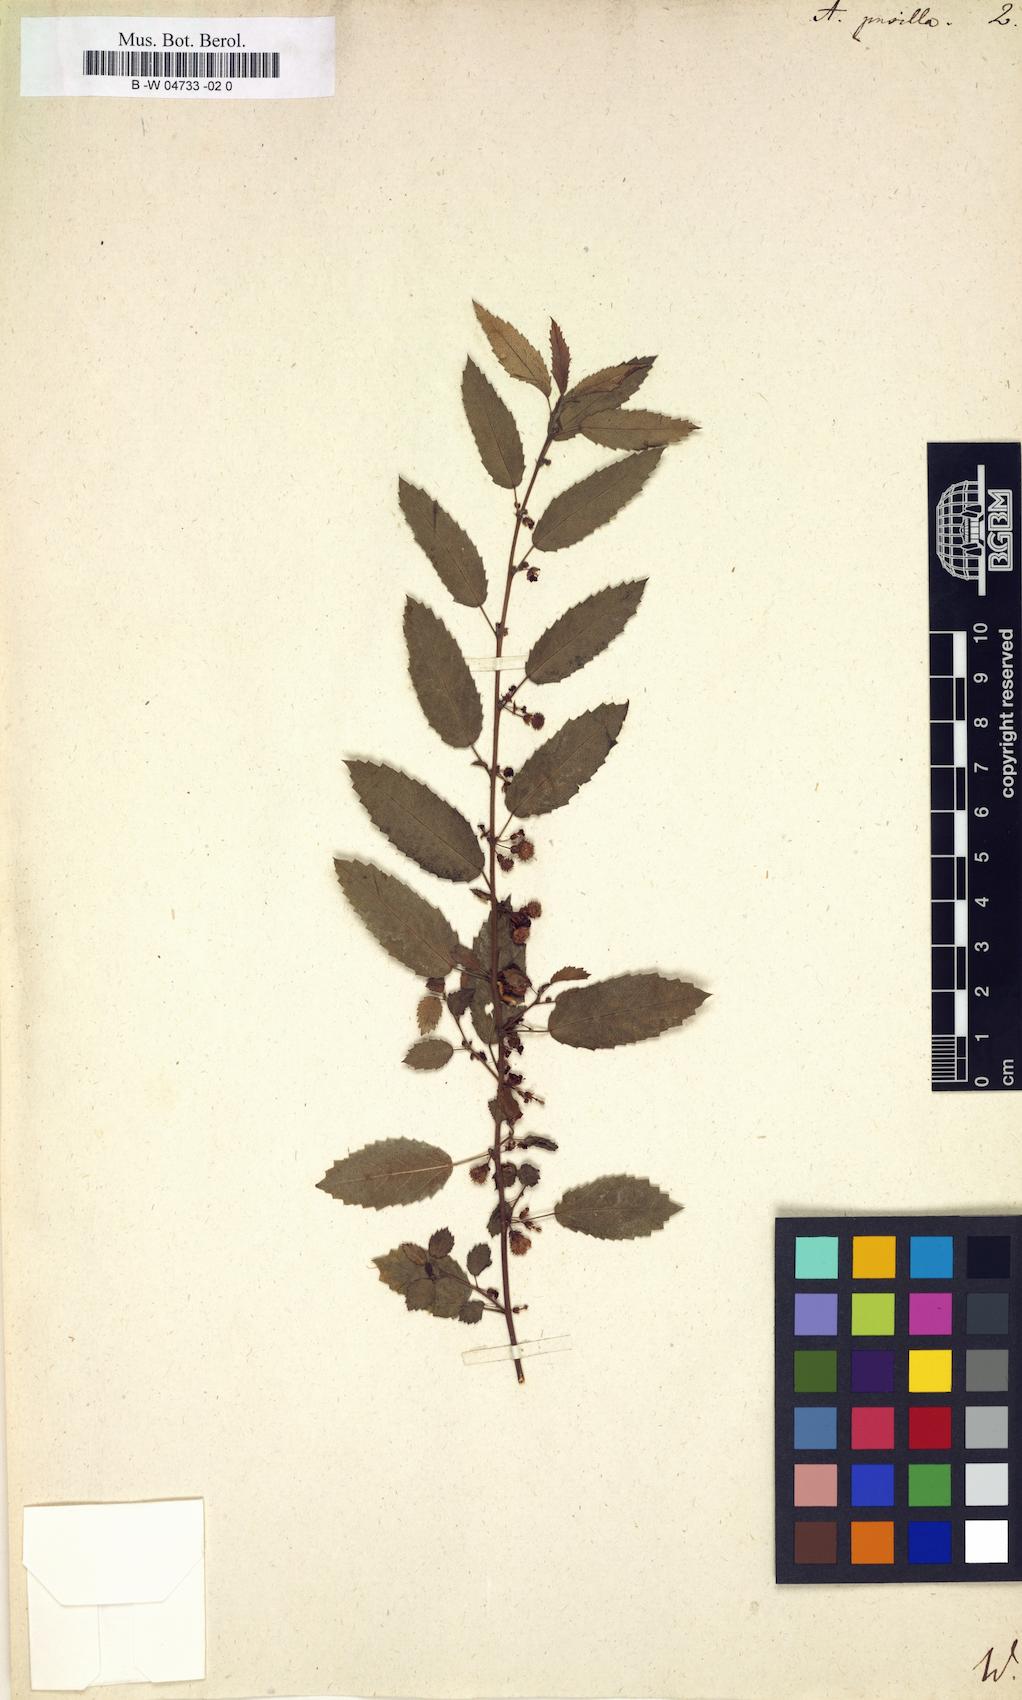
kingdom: Plantae
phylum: Tracheophyta
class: Magnoliopsida
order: Malvales
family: Malvaceae
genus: Ayenia
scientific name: Ayenia pusilla
